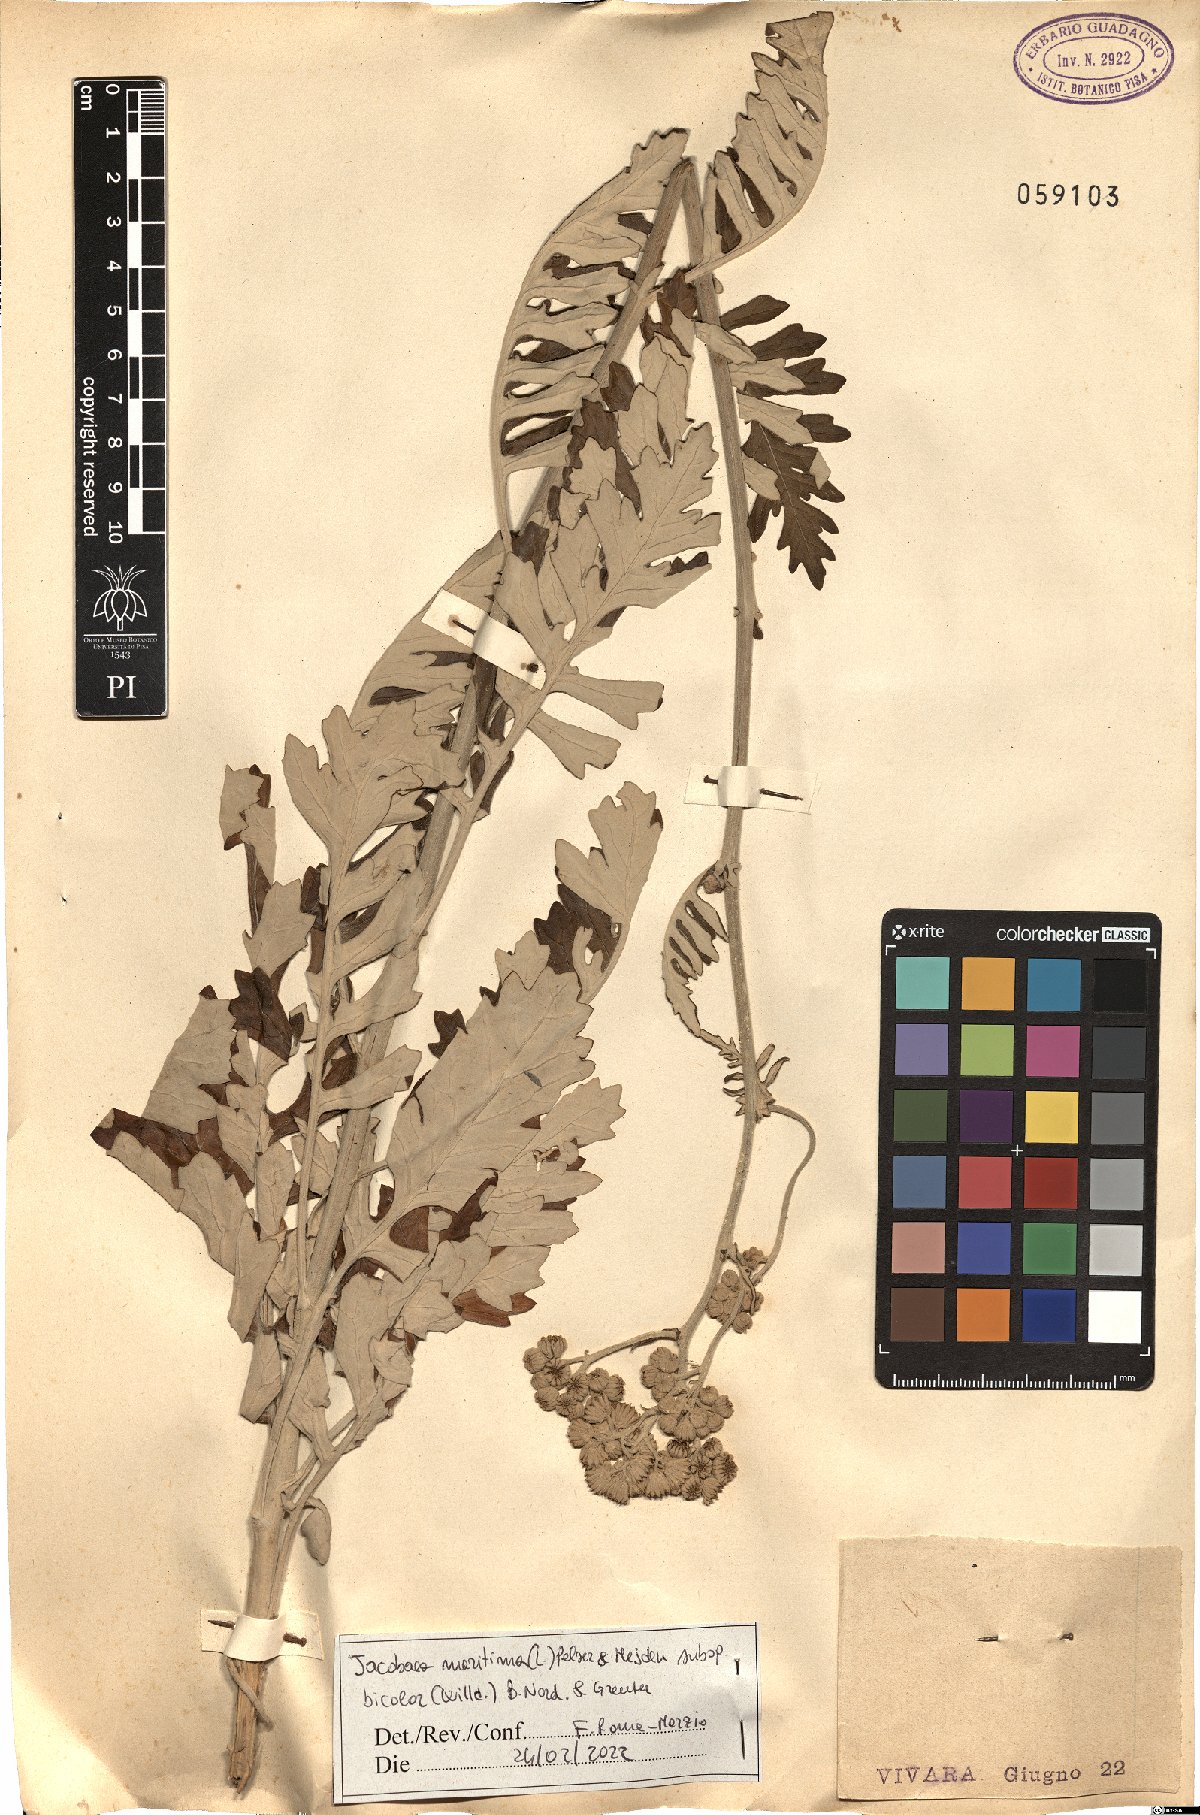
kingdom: Plantae
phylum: Tracheophyta
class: Magnoliopsida
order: Asterales
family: Asteraceae
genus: Jacobaea
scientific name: Jacobaea maritima
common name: Silver ragwort
